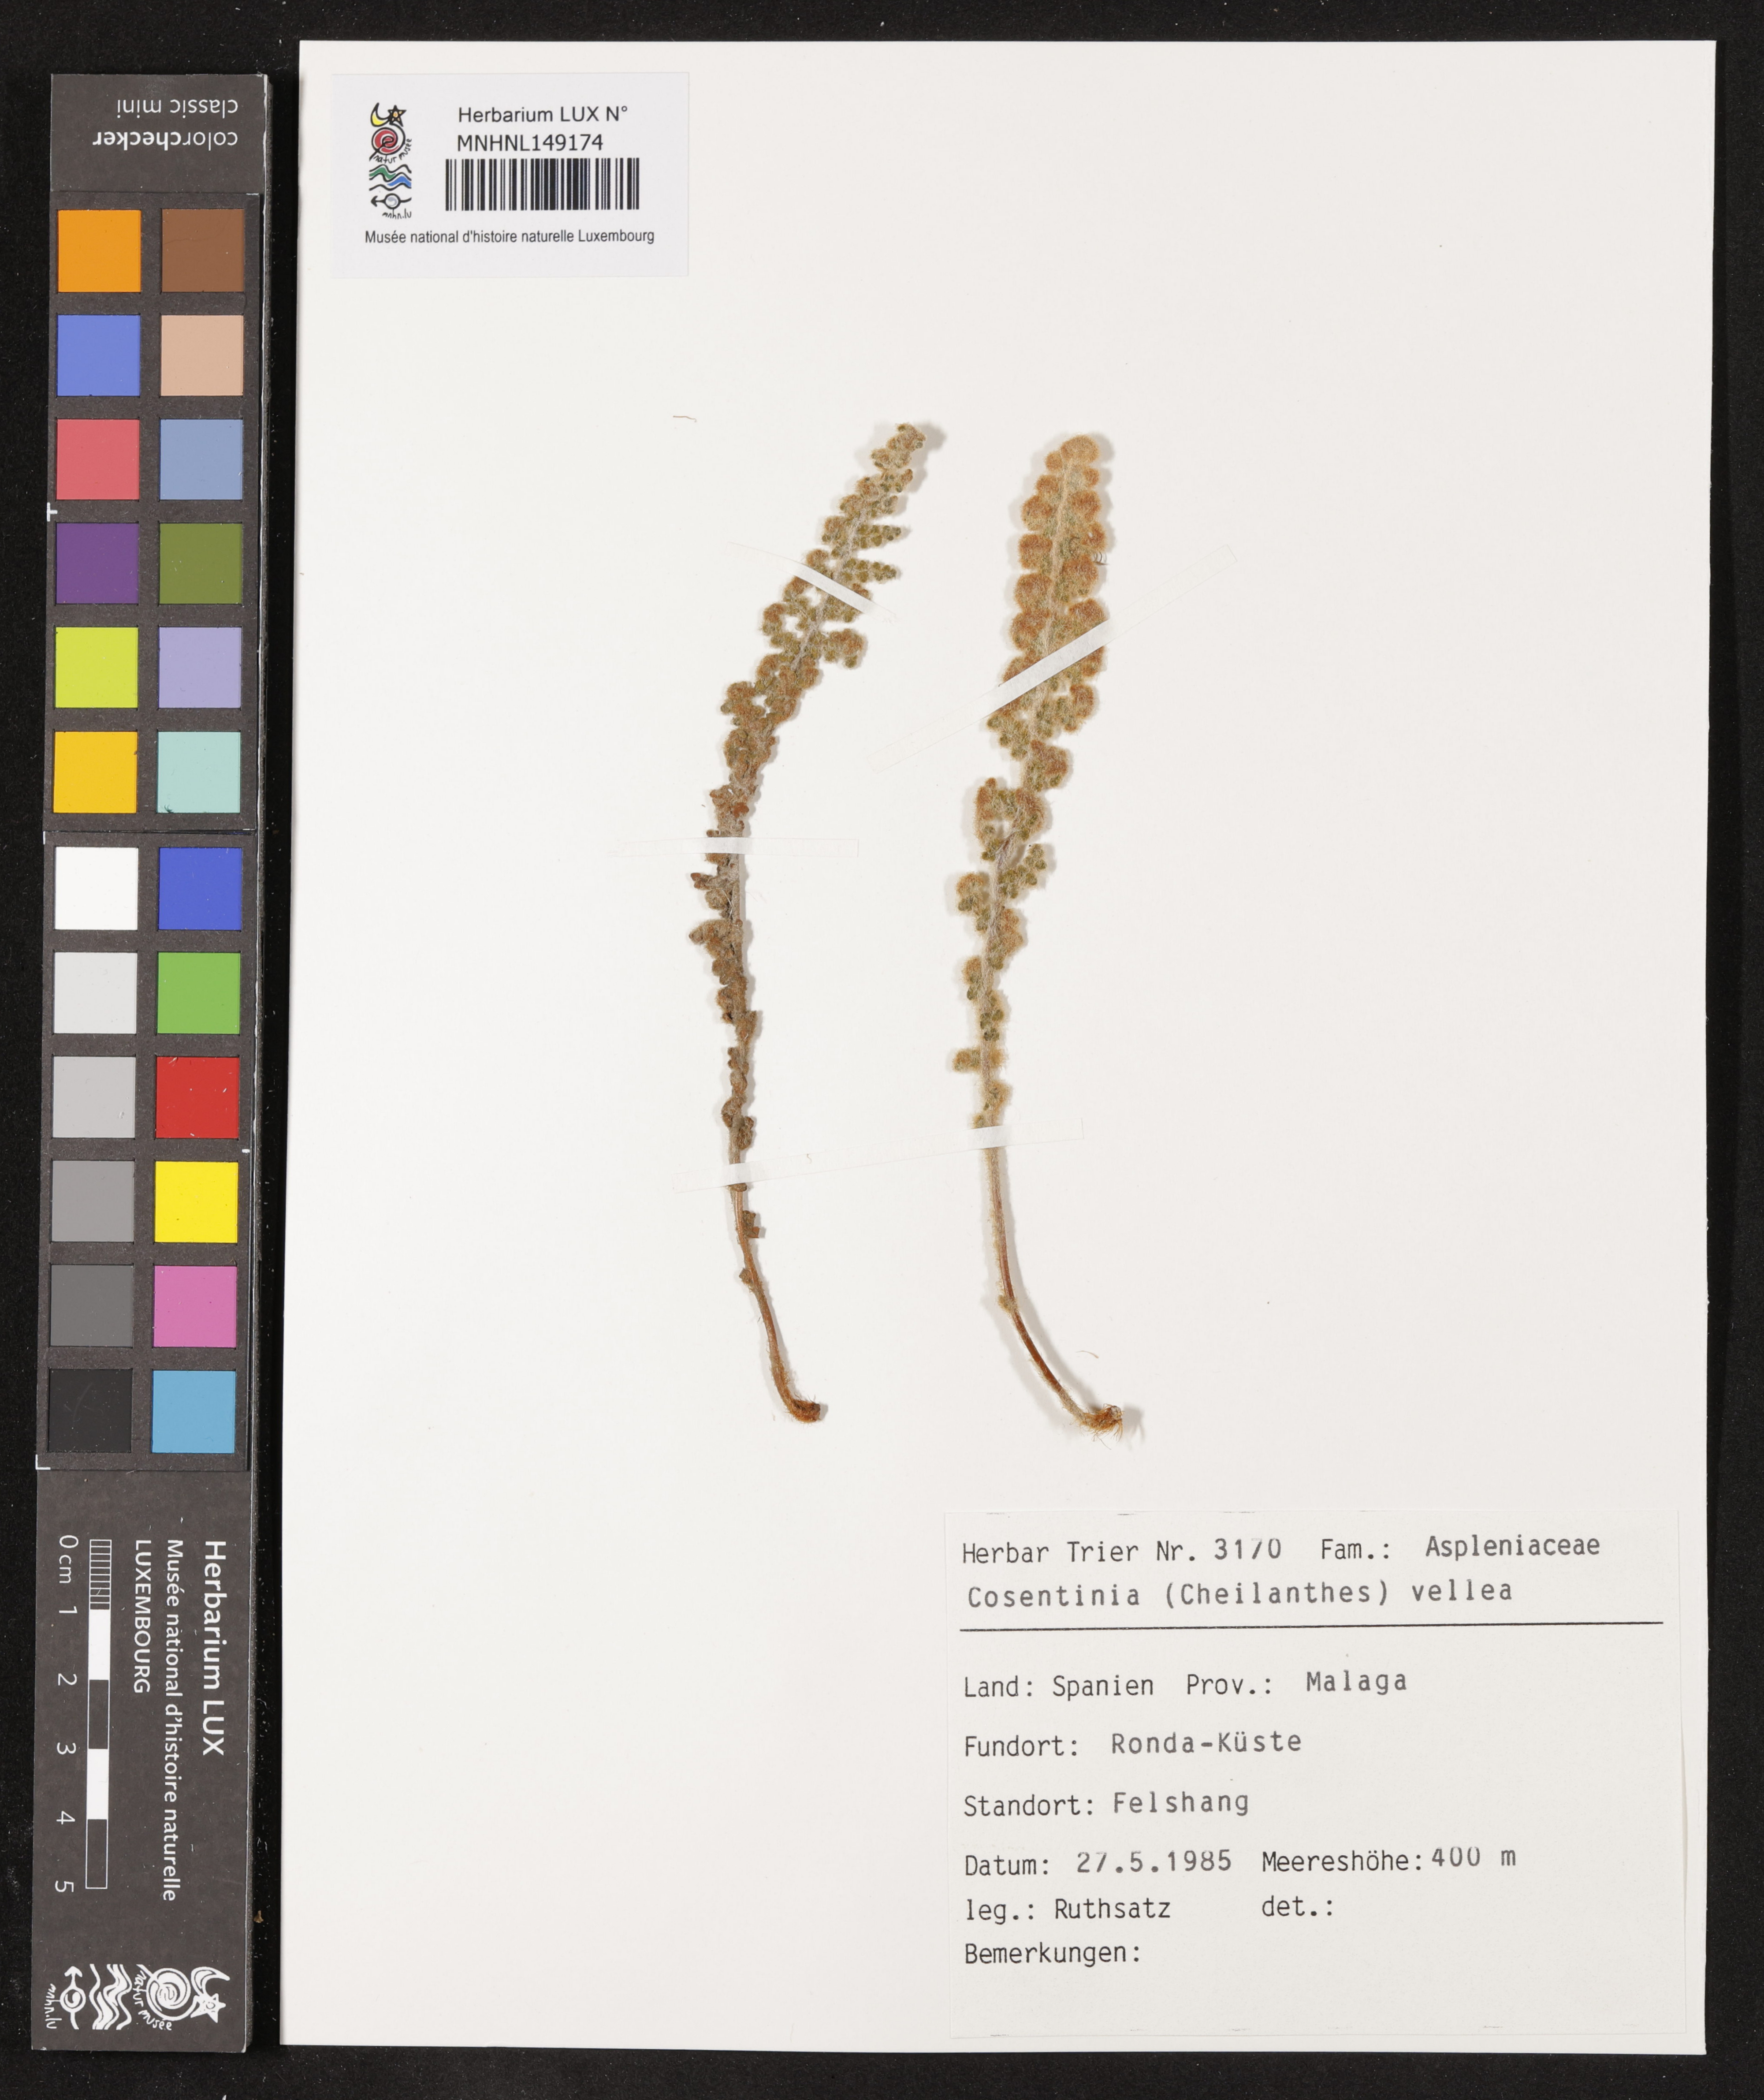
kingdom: Plantae
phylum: Tracheophyta
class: Polypodiopsida
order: Polypodiales
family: Pteridaceae
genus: Cosentinia
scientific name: Cosentinia vellea
